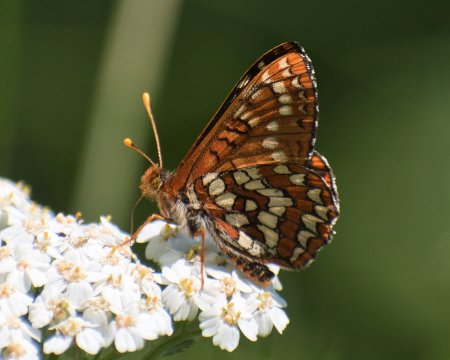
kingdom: Animalia
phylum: Arthropoda
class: Insecta
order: Lepidoptera
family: Nymphalidae
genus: Occidryas
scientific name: Occidryas anicia
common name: Anicia Checkerspot
